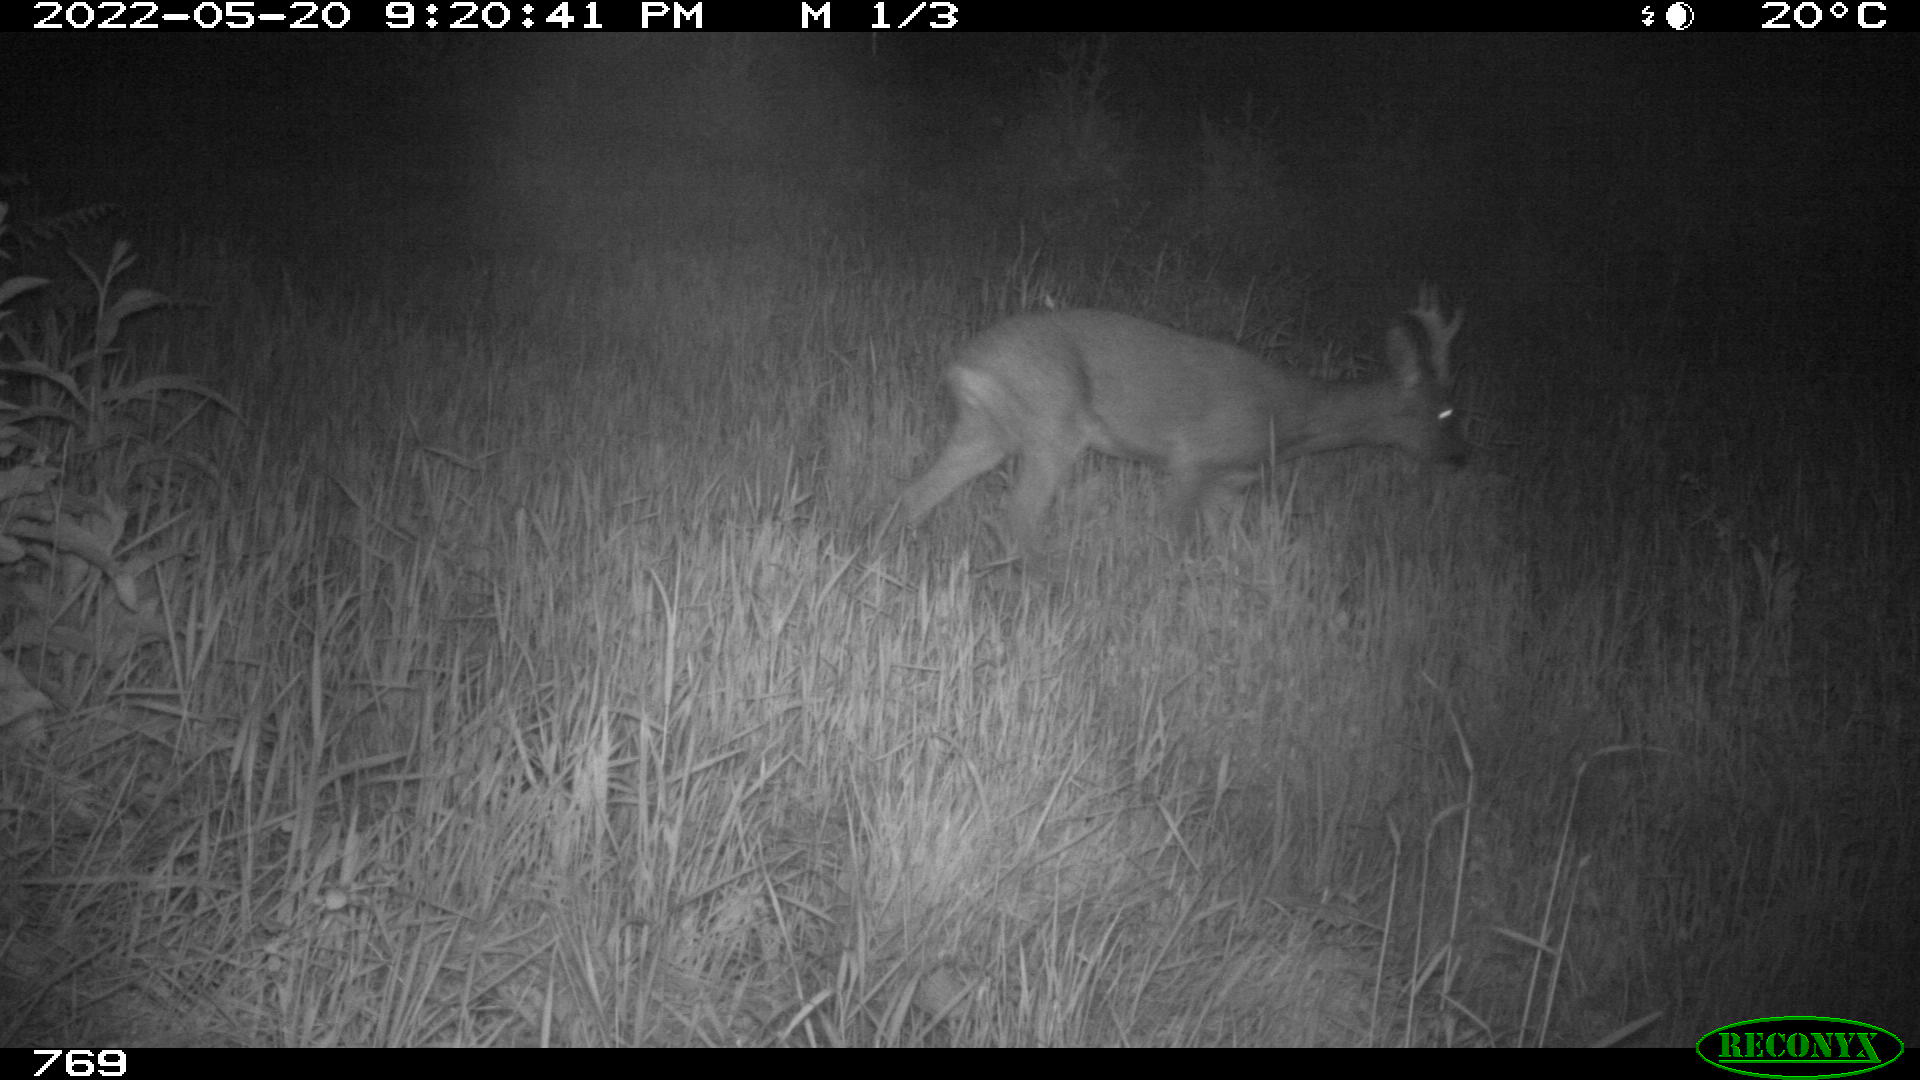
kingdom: Animalia
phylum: Chordata
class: Mammalia
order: Artiodactyla
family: Cervidae
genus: Capreolus
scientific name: Capreolus capreolus
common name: Western roe deer
